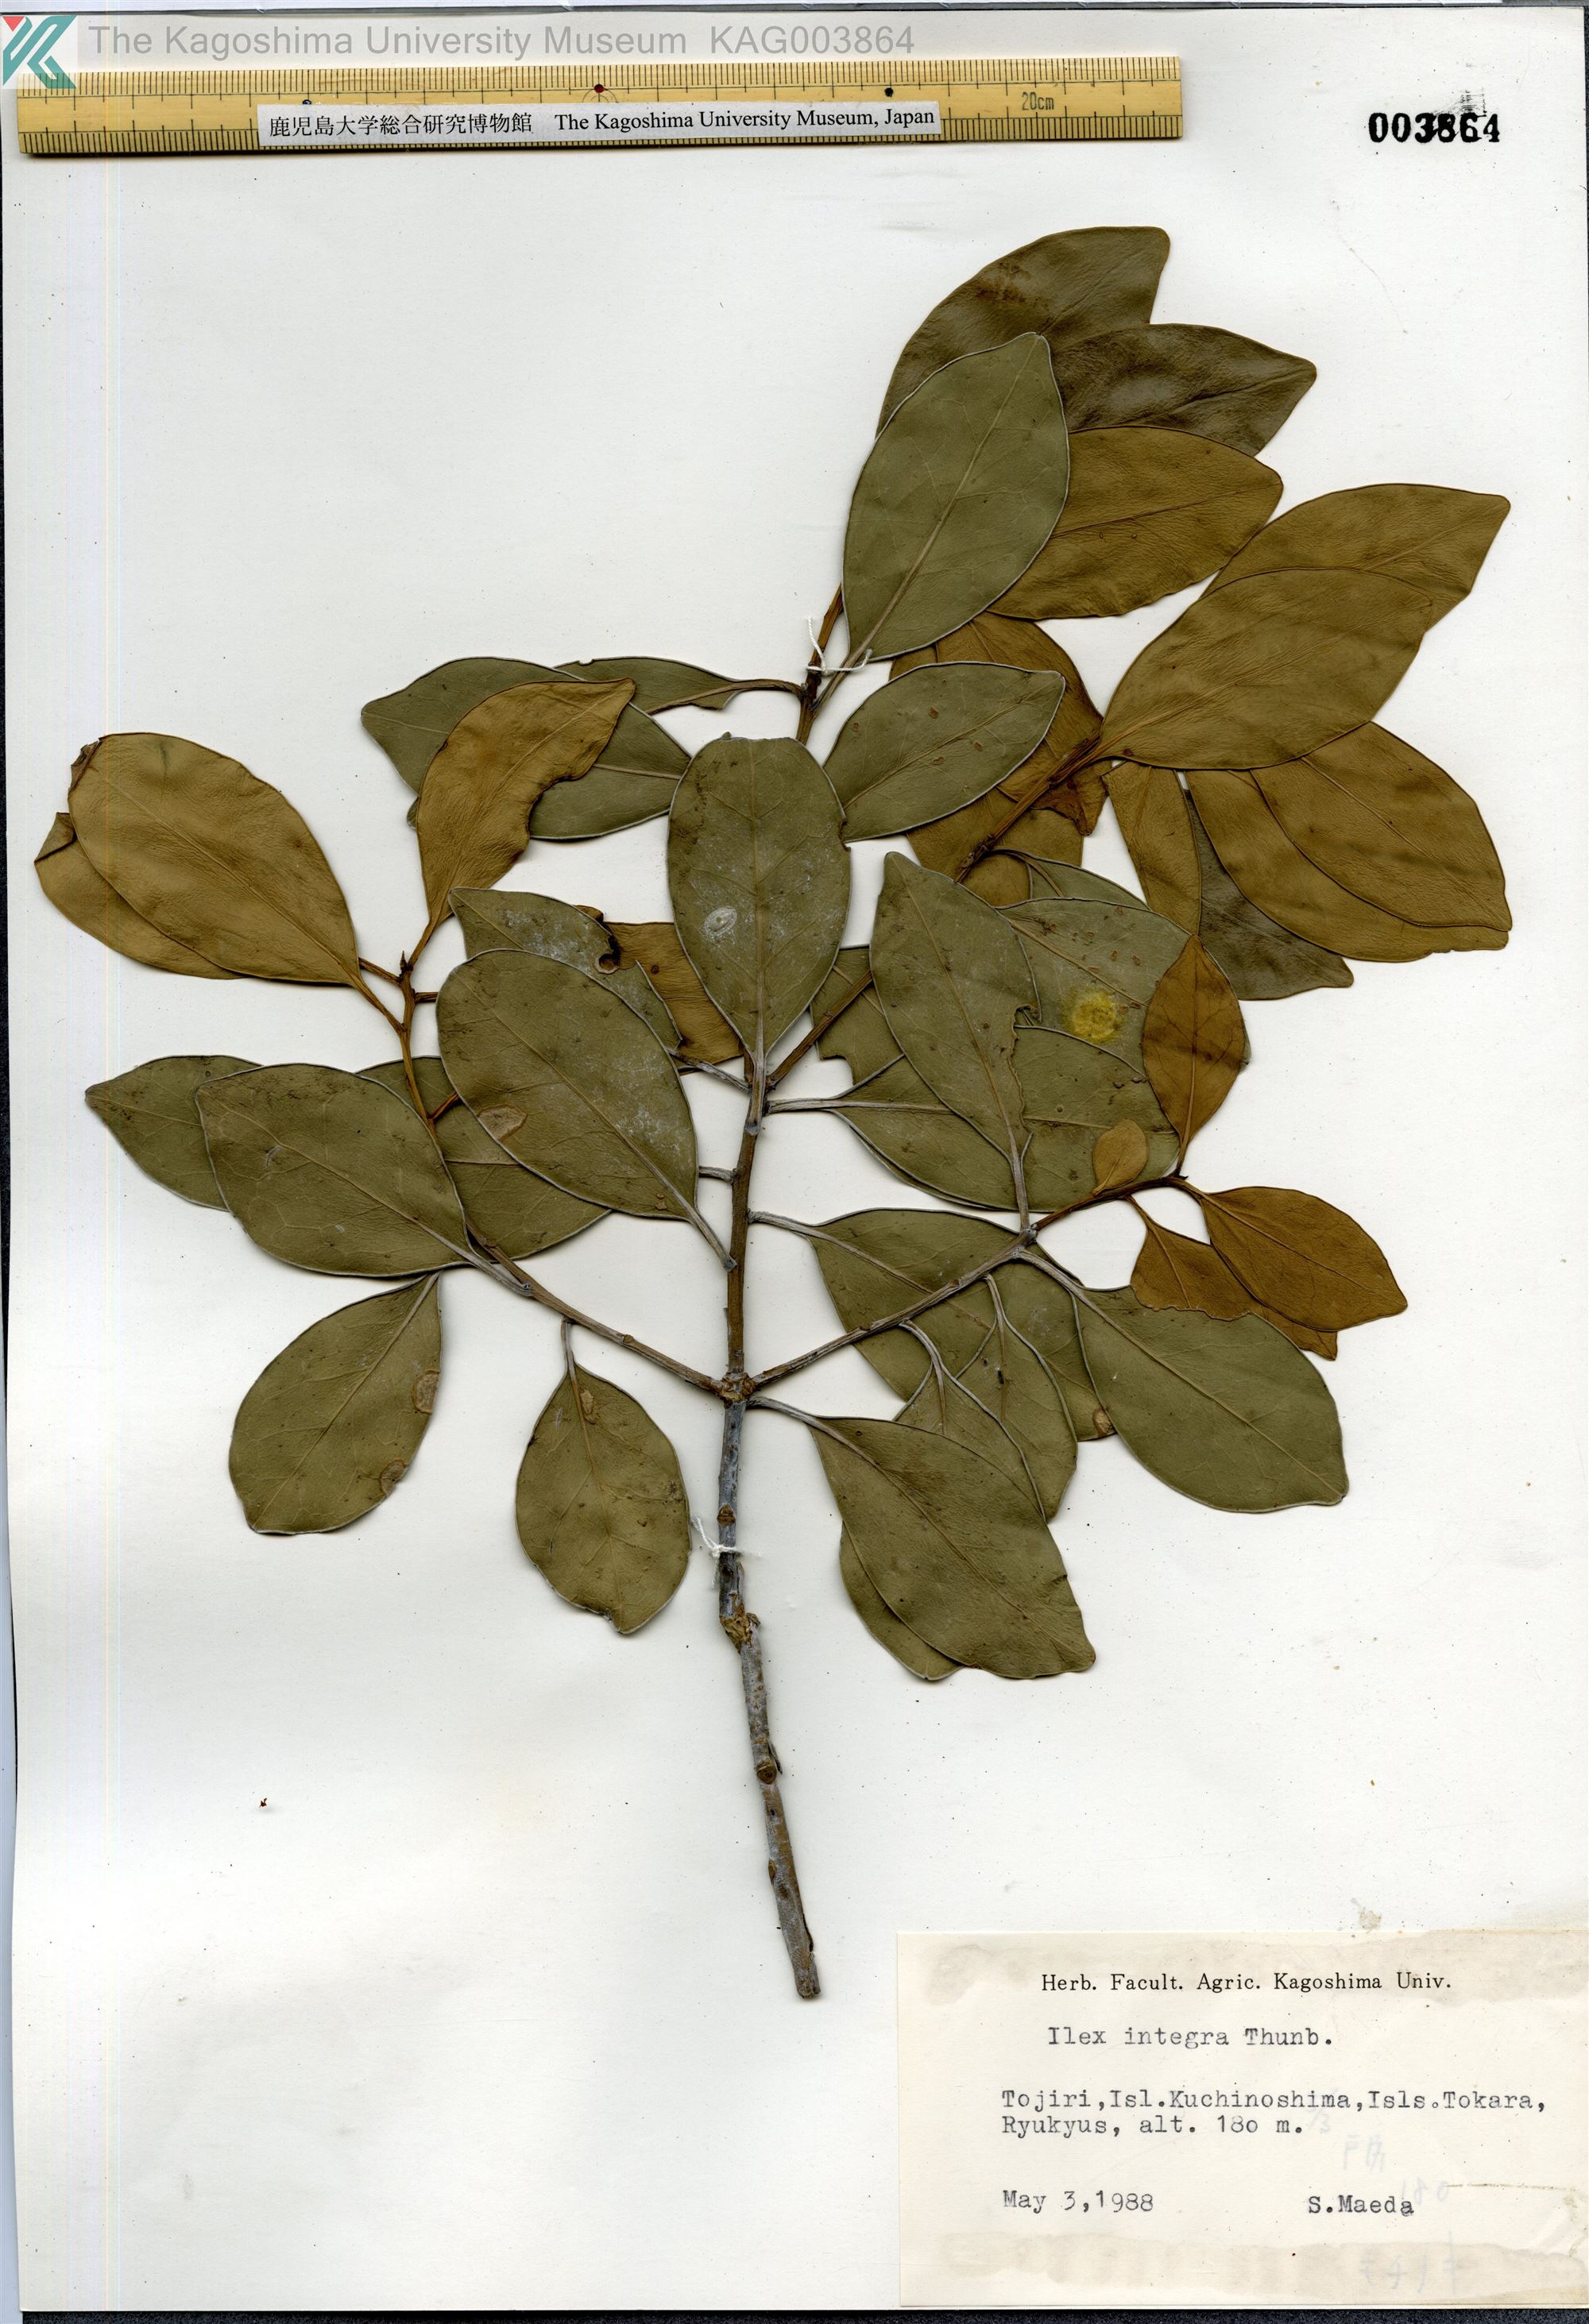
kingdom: Plantae
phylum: Tracheophyta
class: Magnoliopsida
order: Aquifoliales
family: Aquifoliaceae
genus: Ilex
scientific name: Ilex integra
